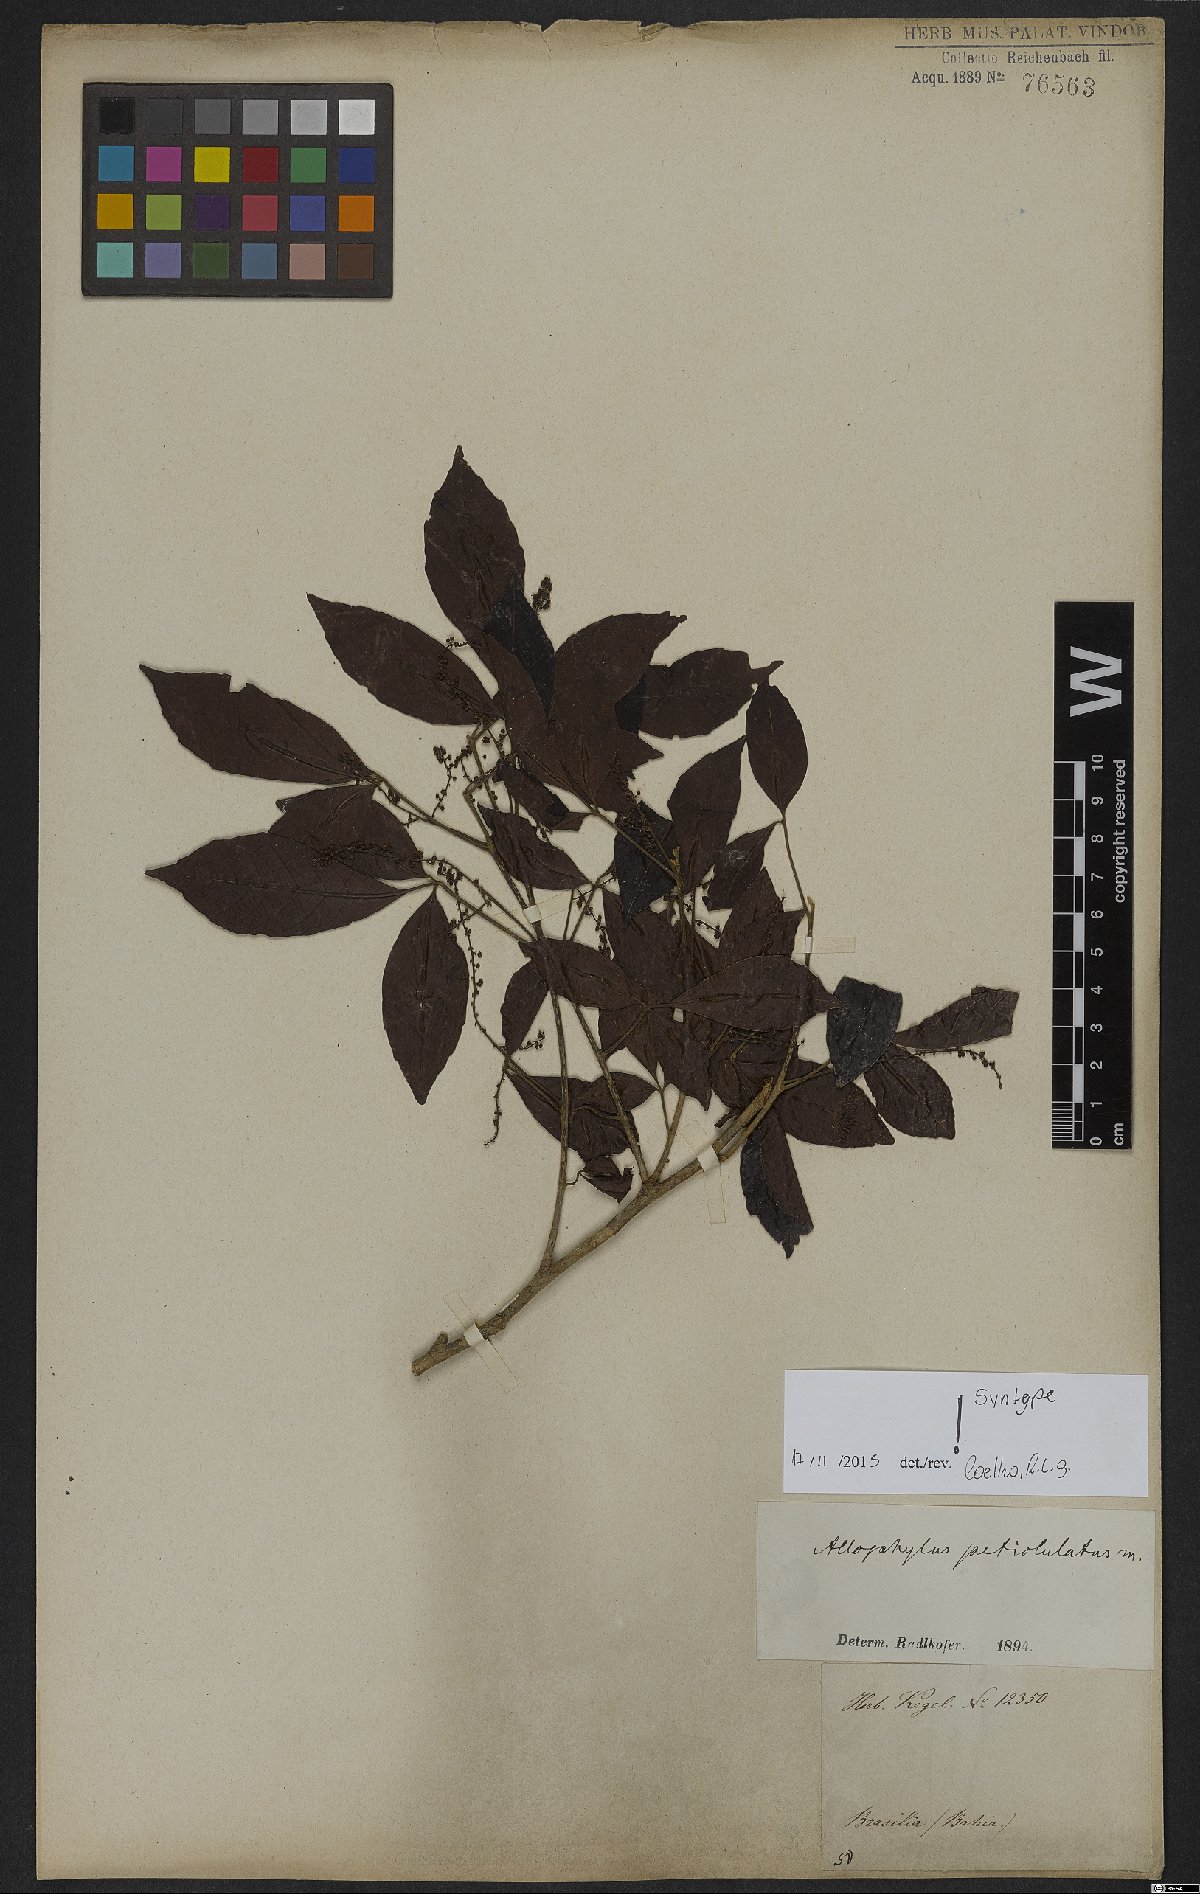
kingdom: Plantae
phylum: Tracheophyta
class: Magnoliopsida
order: Sapindales
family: Sapindaceae
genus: Allophylus
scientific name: Allophylus petiolulatus
